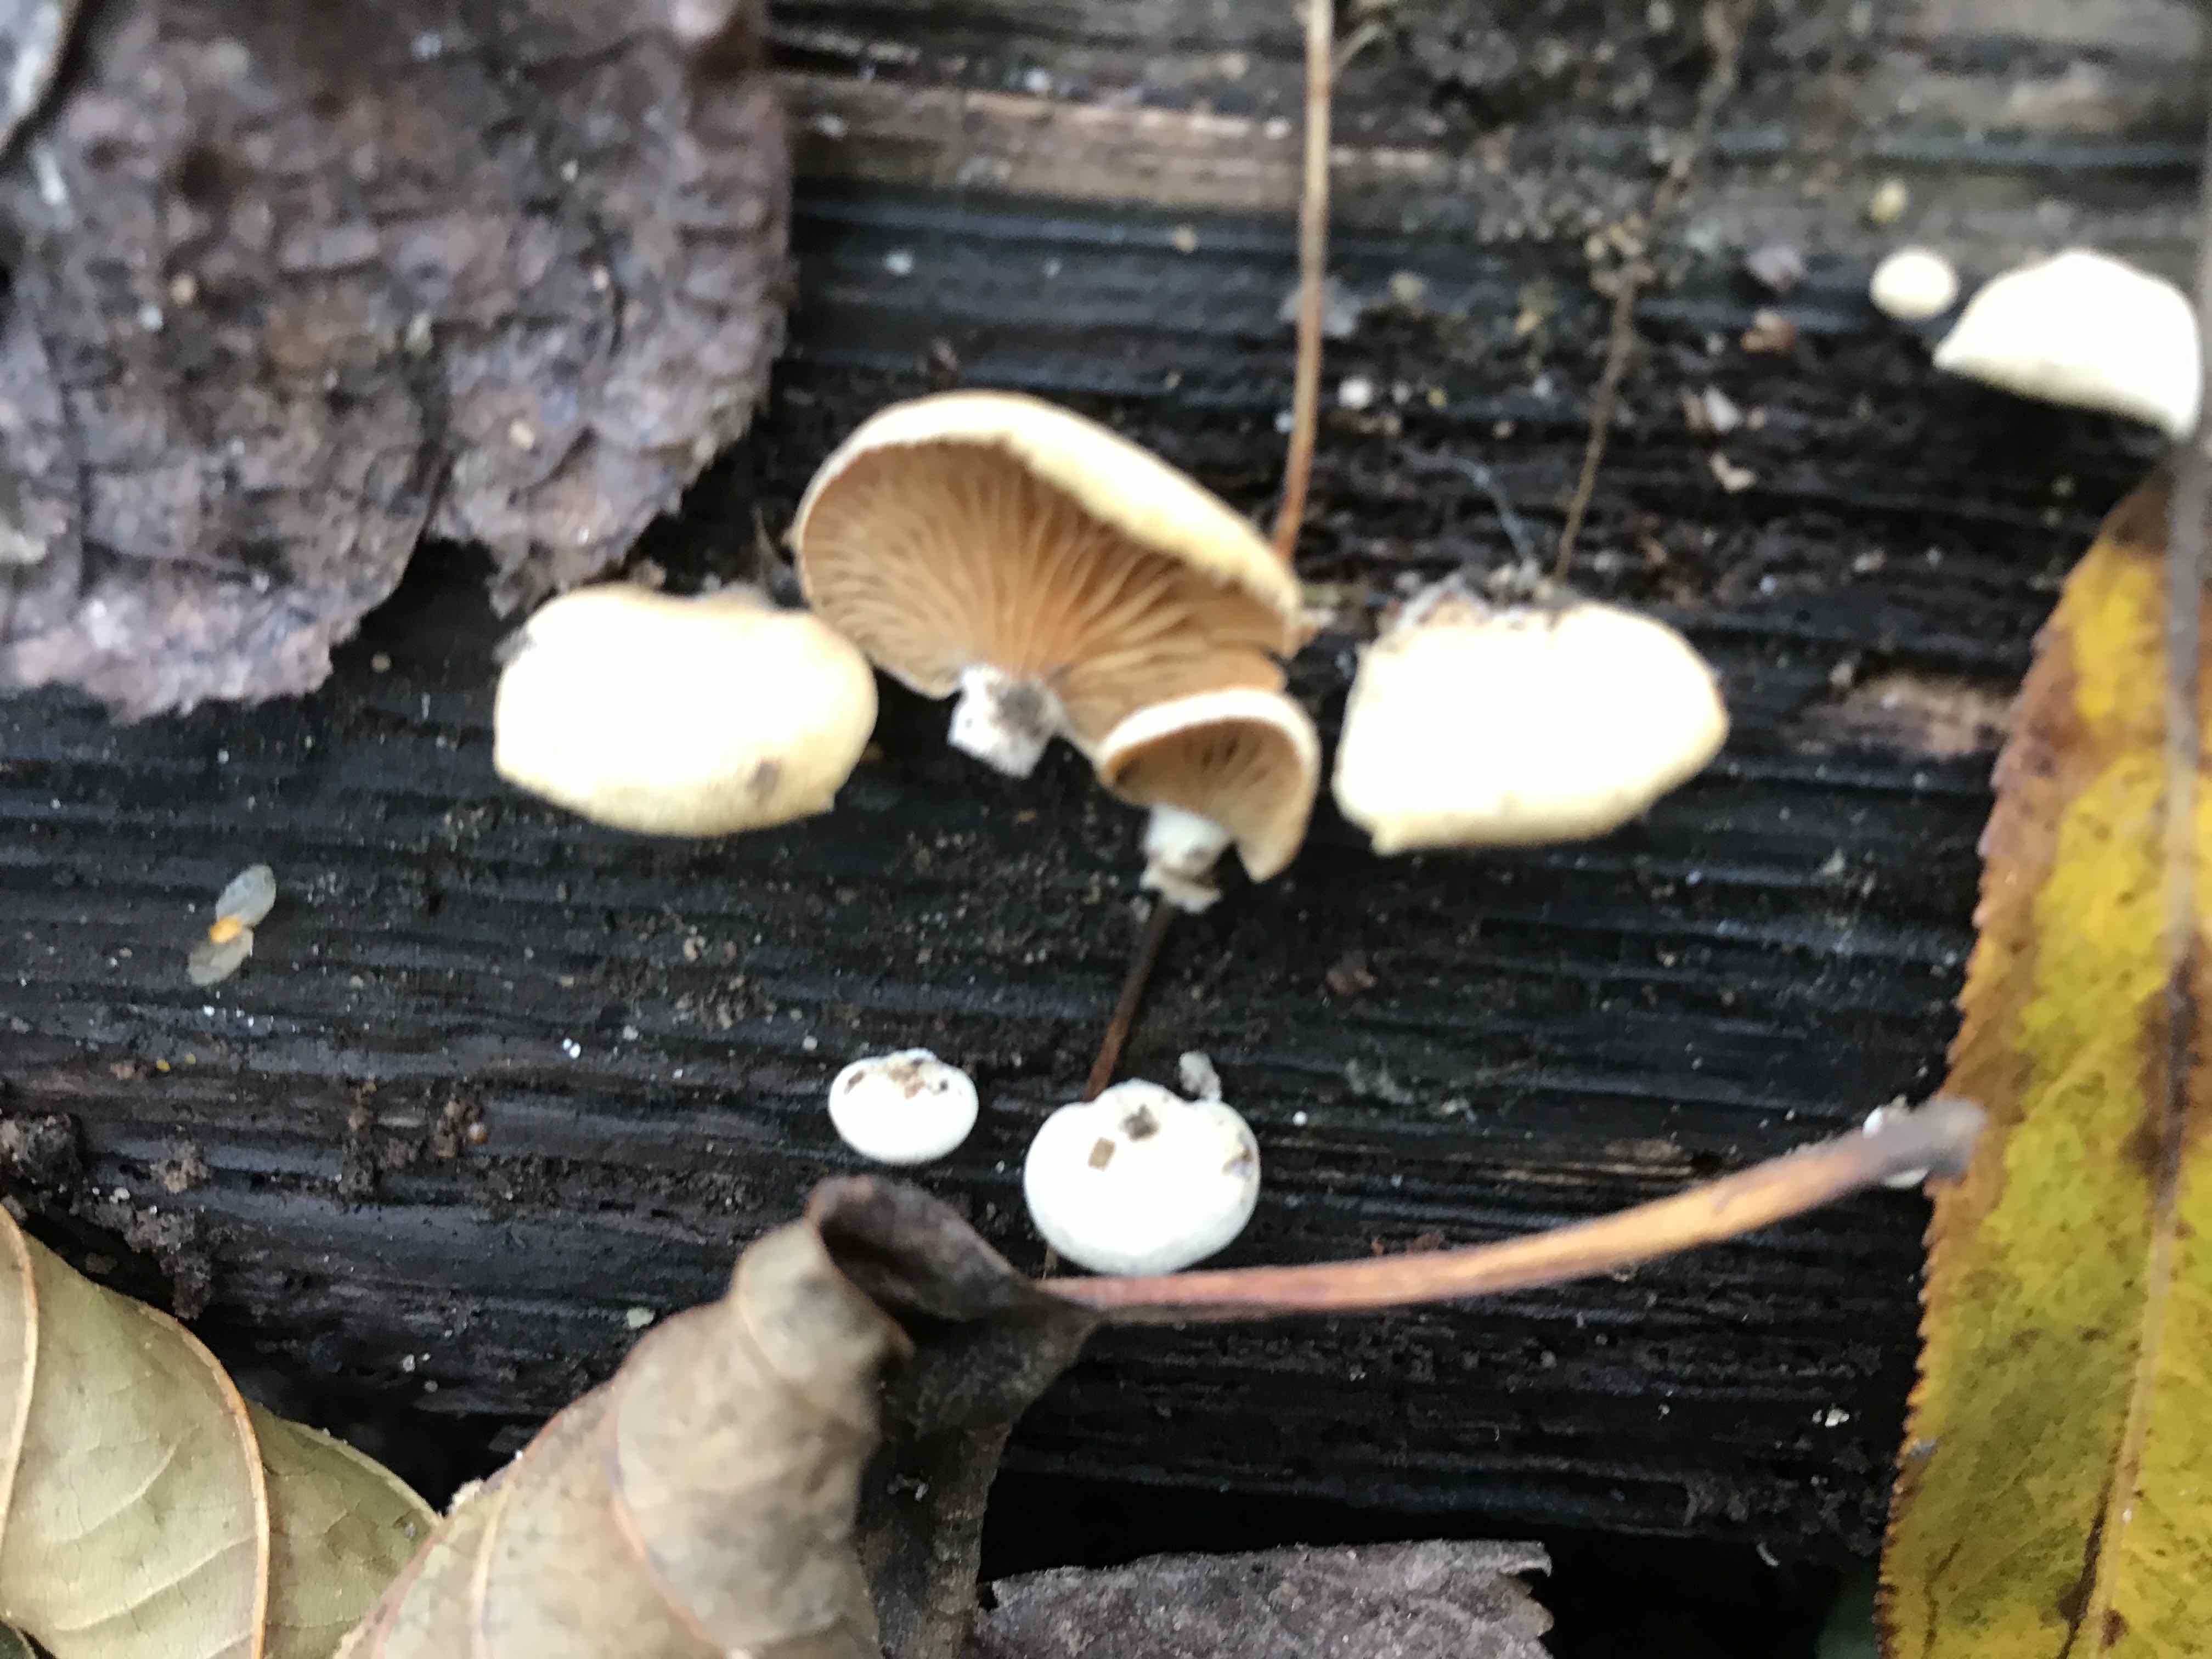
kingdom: Fungi
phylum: Basidiomycota
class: Agaricomycetes
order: Agaricales
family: Mycenaceae
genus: Panellus
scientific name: Panellus stipticus
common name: kliddet epaulethat
